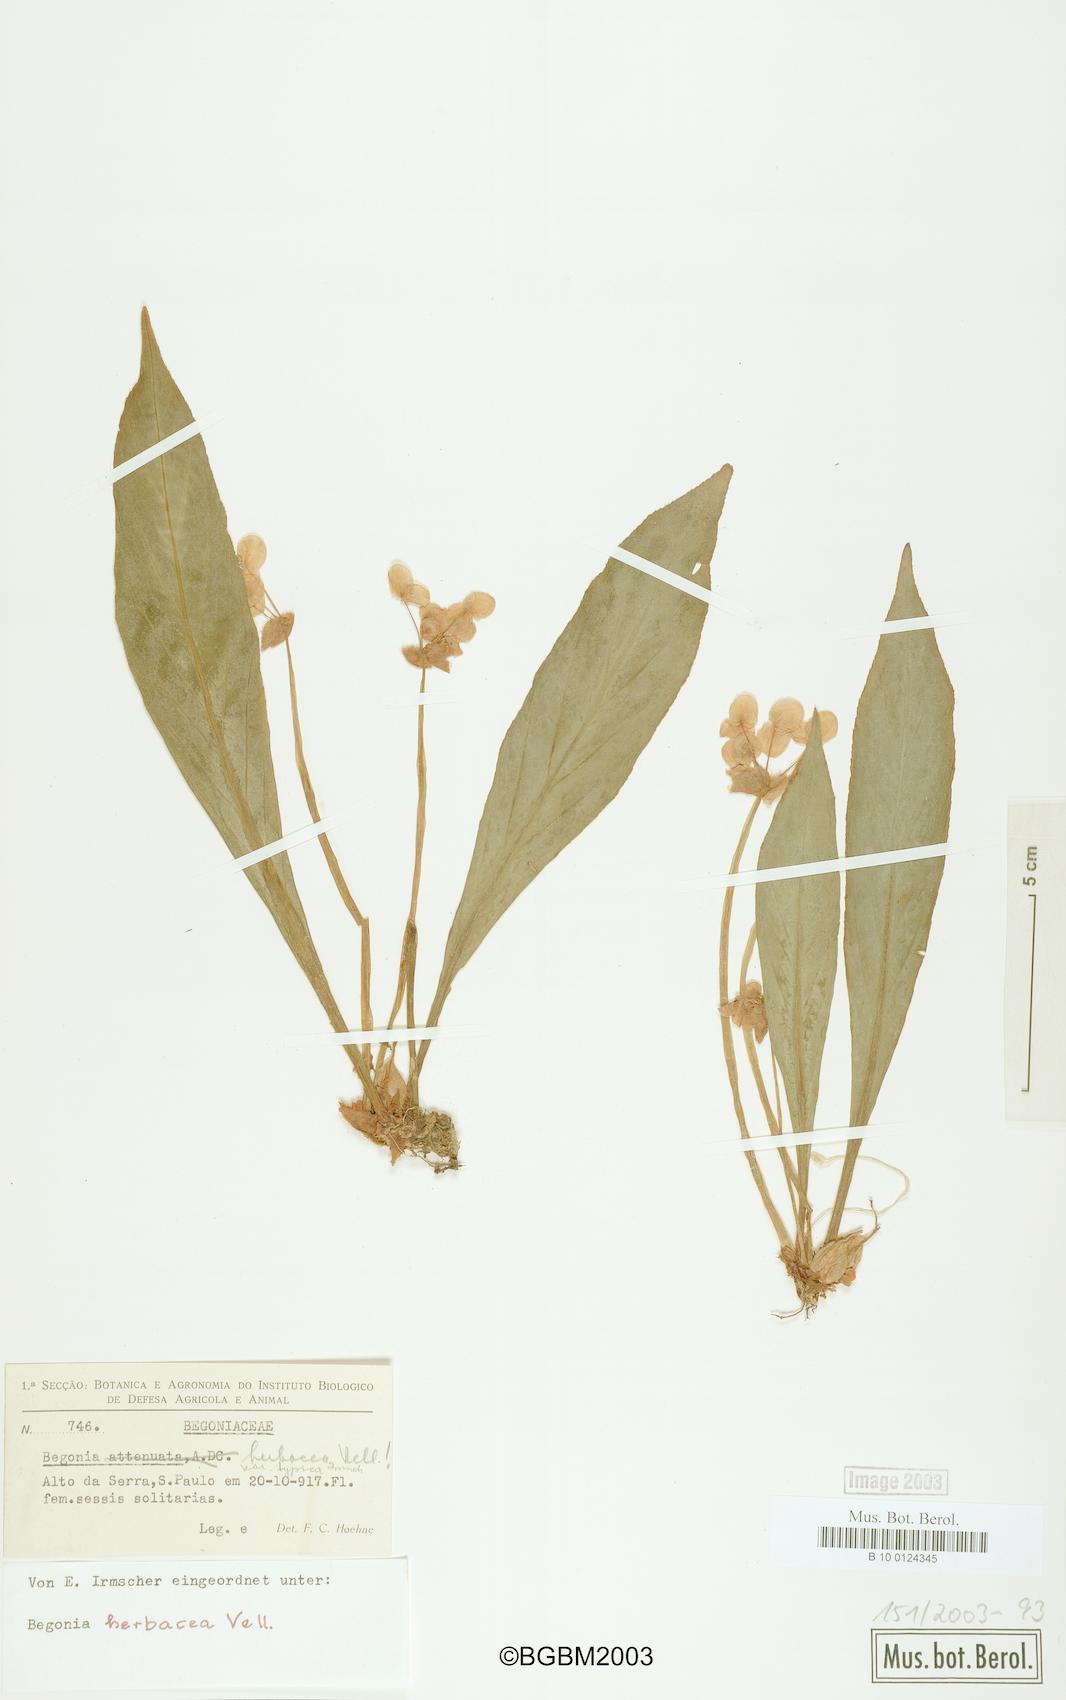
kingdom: Plantae
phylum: Tracheophyta
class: Magnoliopsida
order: Cucurbitales
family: Begoniaceae
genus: Begonia
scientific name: Begonia herbacea
